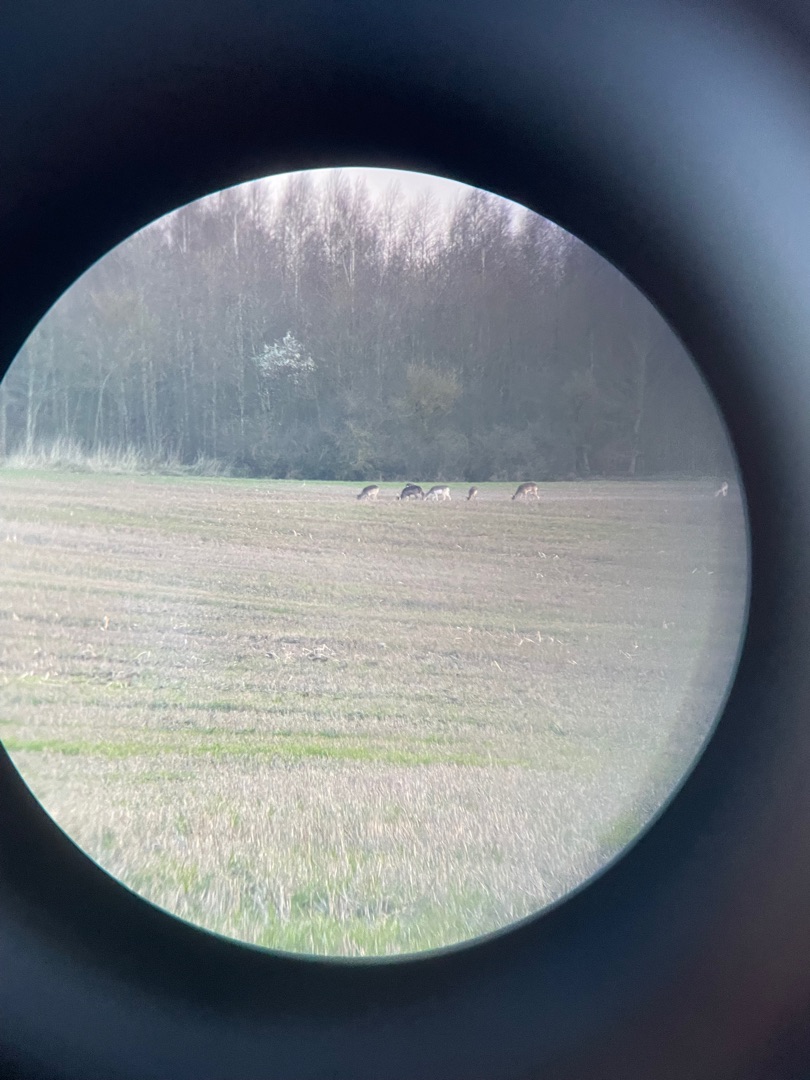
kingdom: Animalia
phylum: Chordata
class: Mammalia
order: Artiodactyla
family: Cervidae
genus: Dama
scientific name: Dama dama
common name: Dådyr
